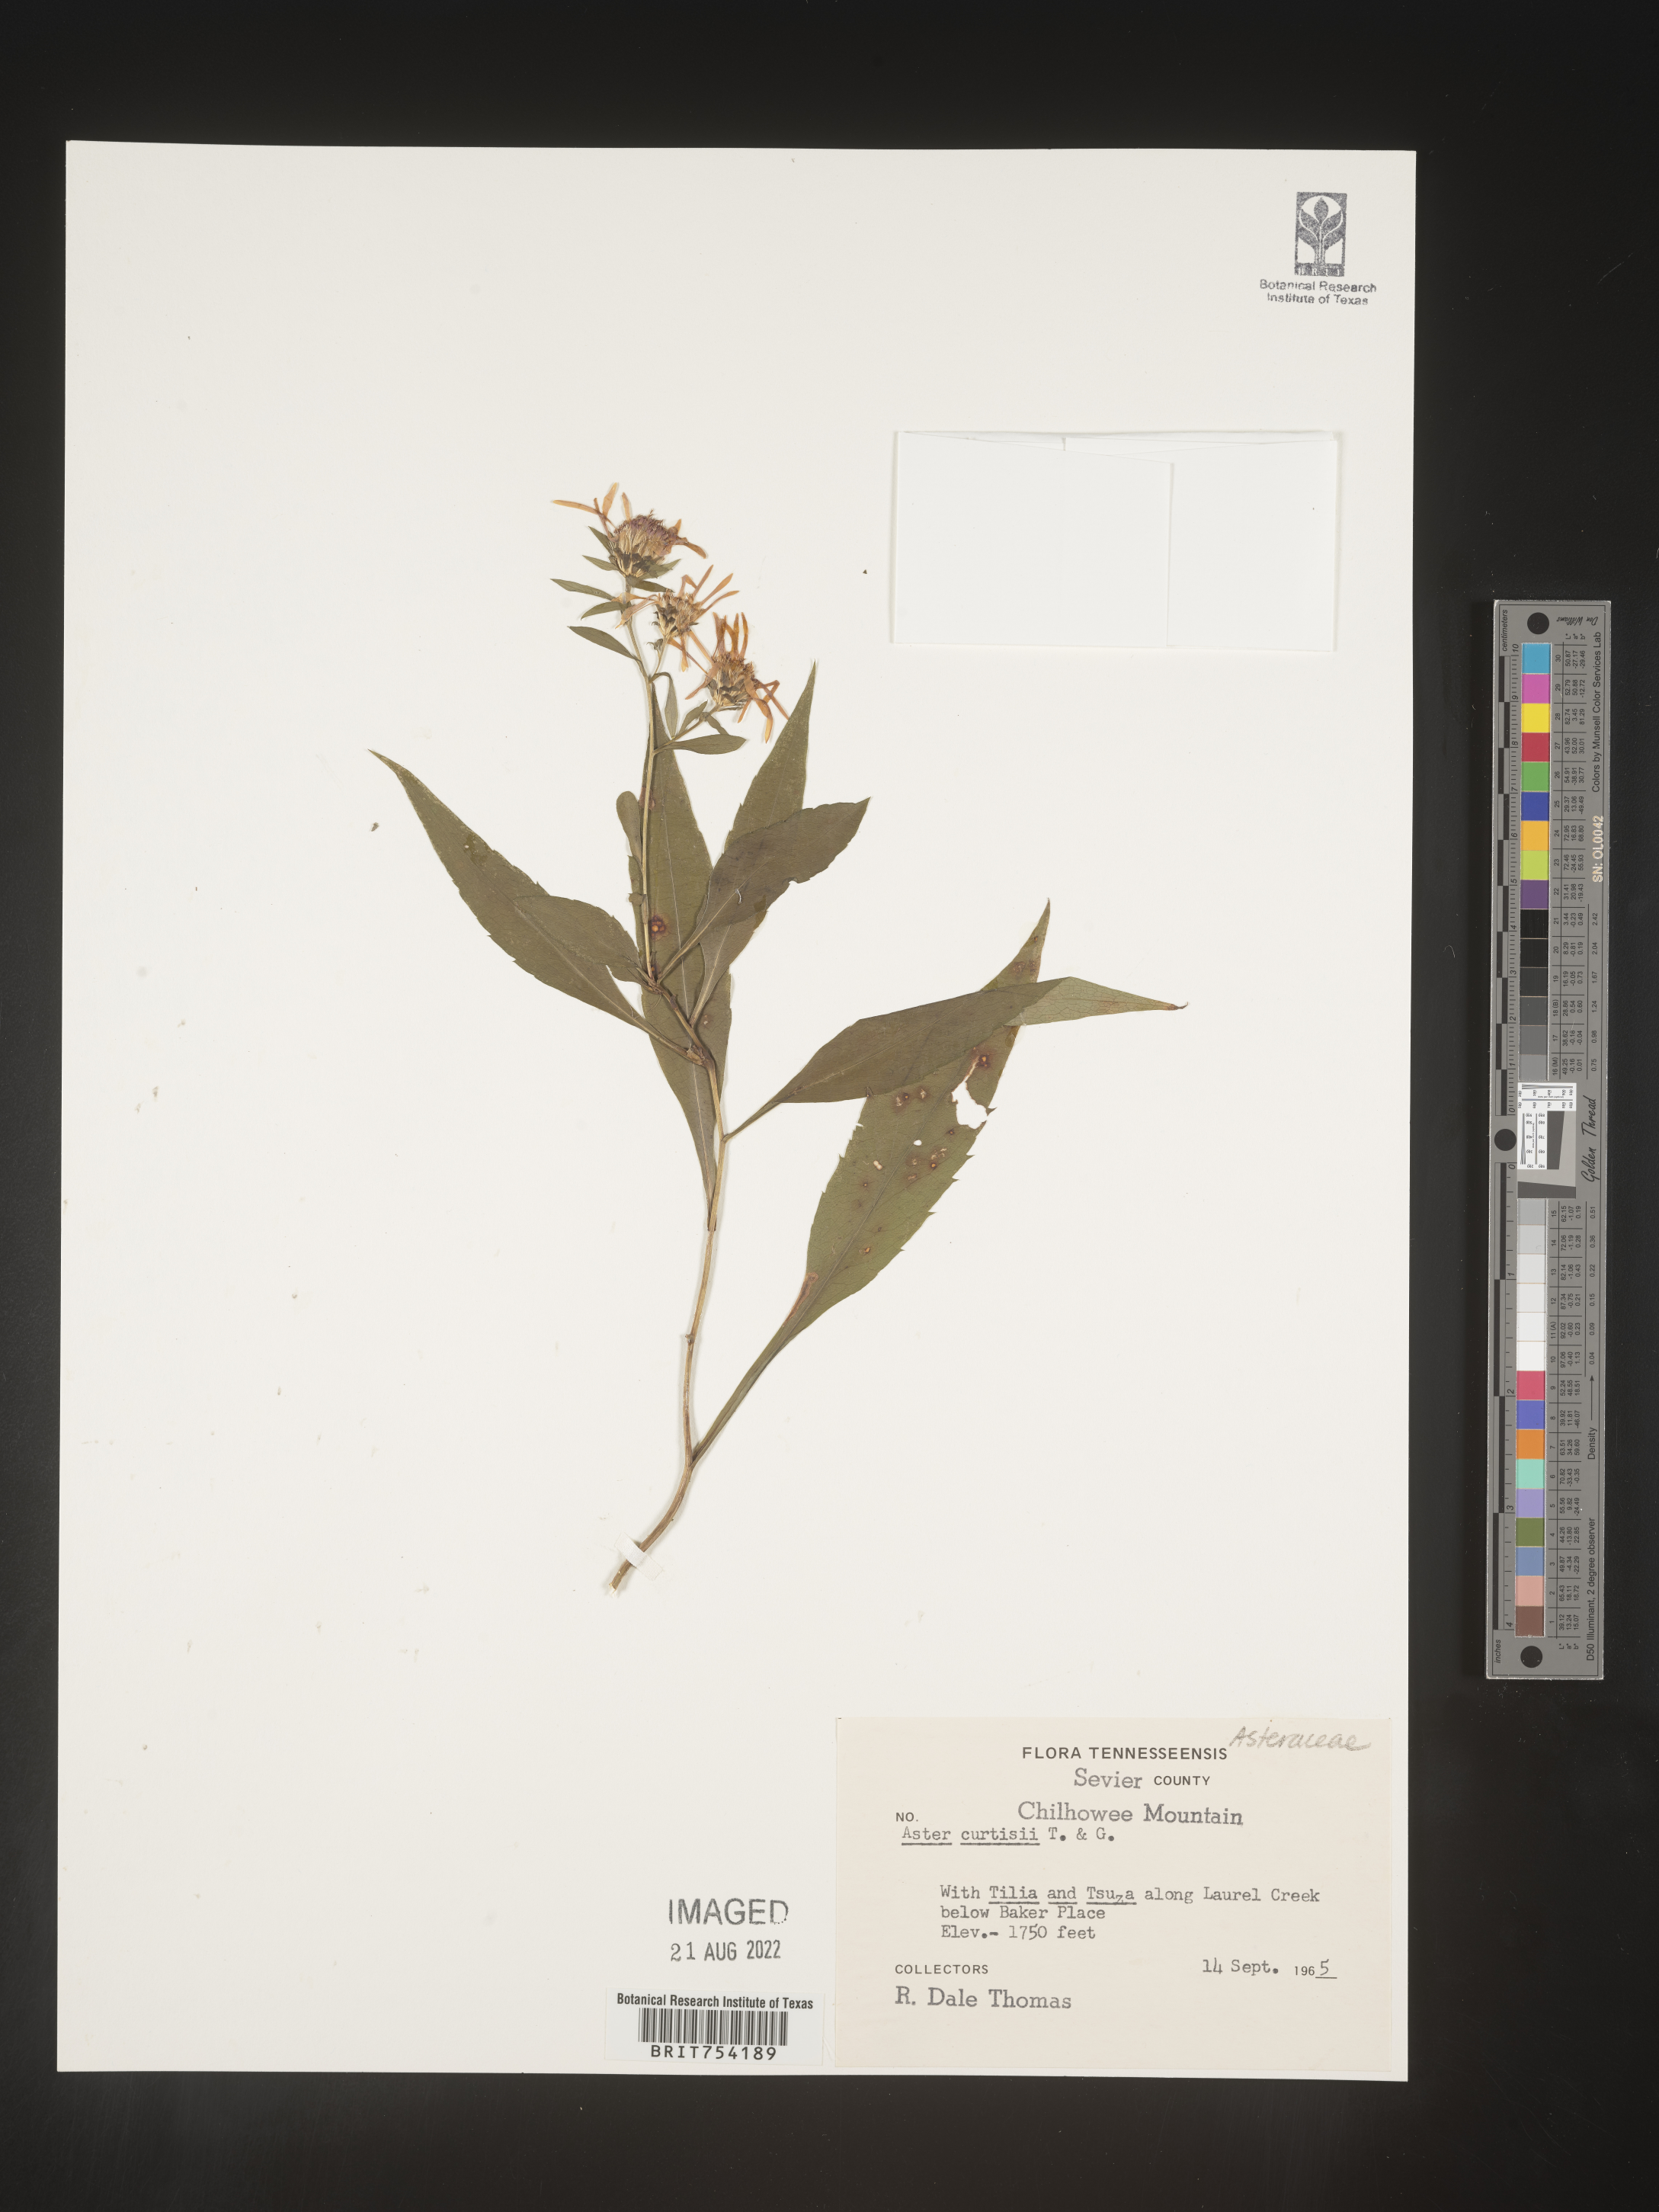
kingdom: Plantae
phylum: Tracheophyta
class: Magnoliopsida
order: Asterales
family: Asteraceae
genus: Symphyotrichum
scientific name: Symphyotrichum retroflexum
